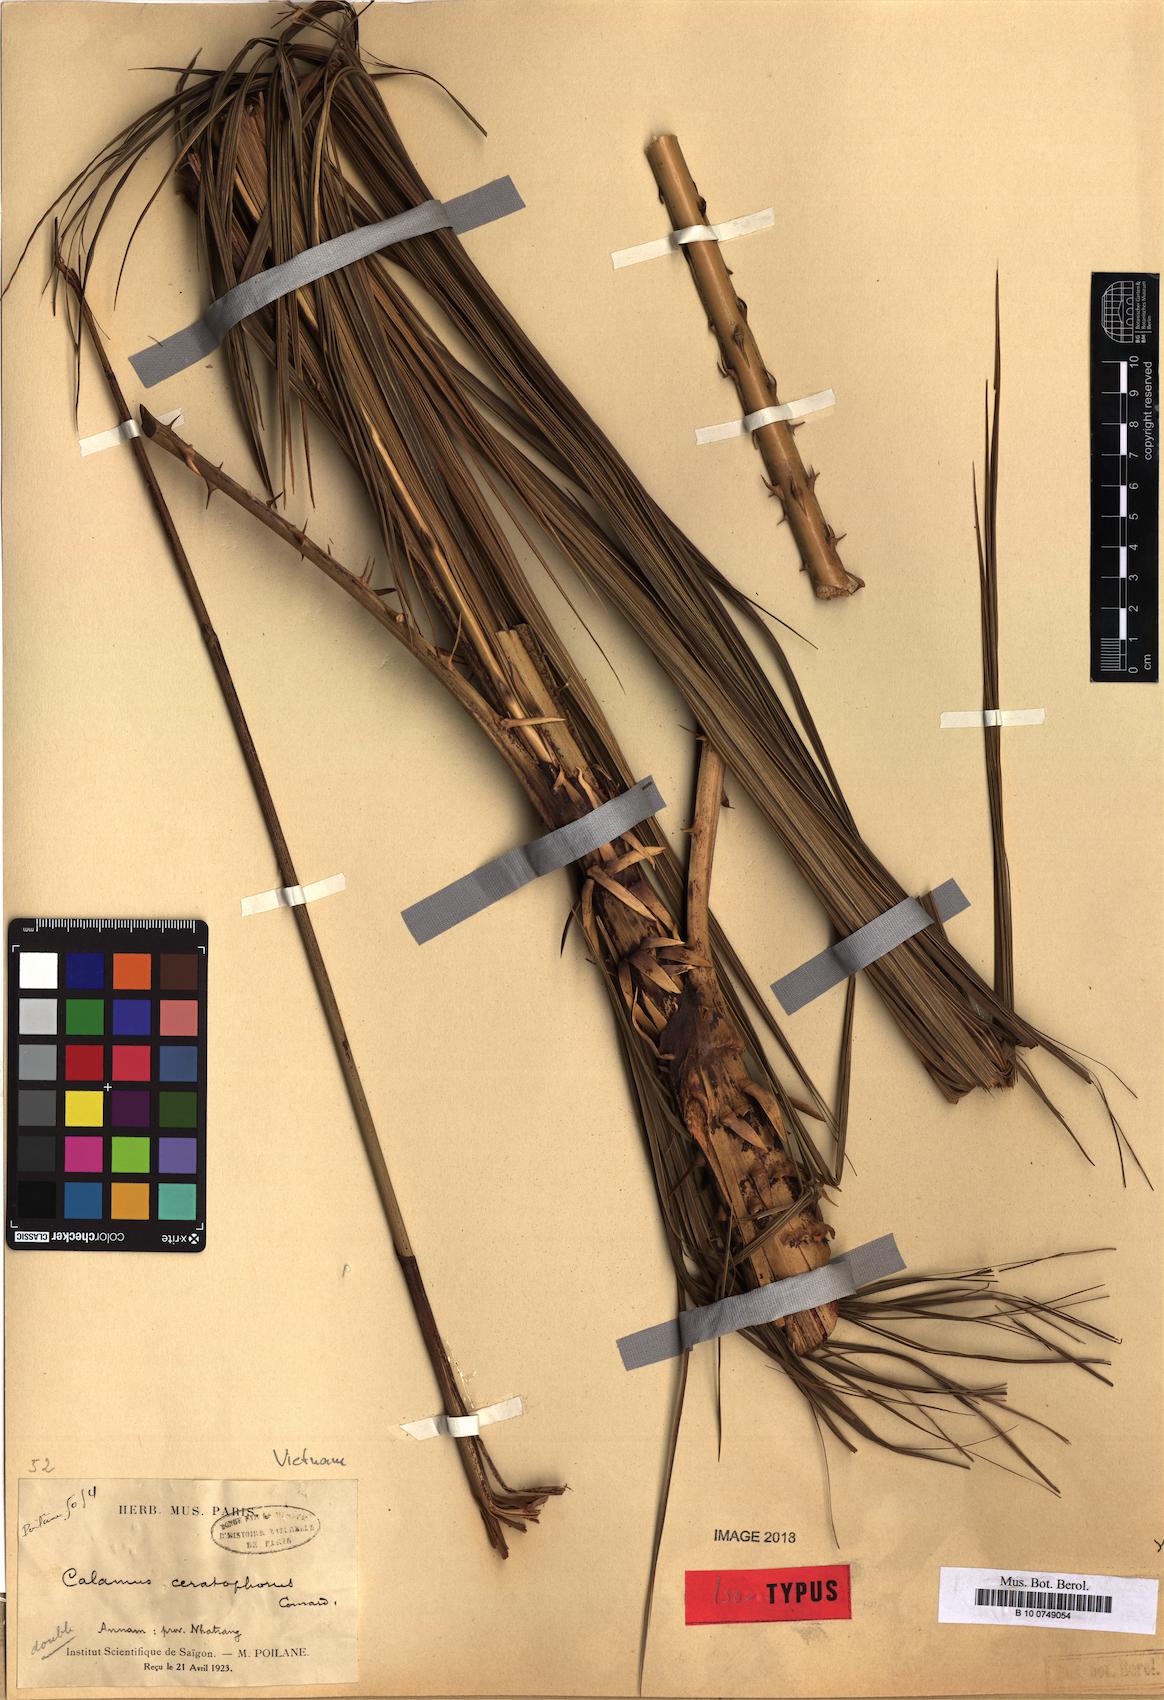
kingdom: Plantae
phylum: Tracheophyta
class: Liliopsida
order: Arecales
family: Arecaceae
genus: Calamus
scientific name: Calamus ceratophorus
